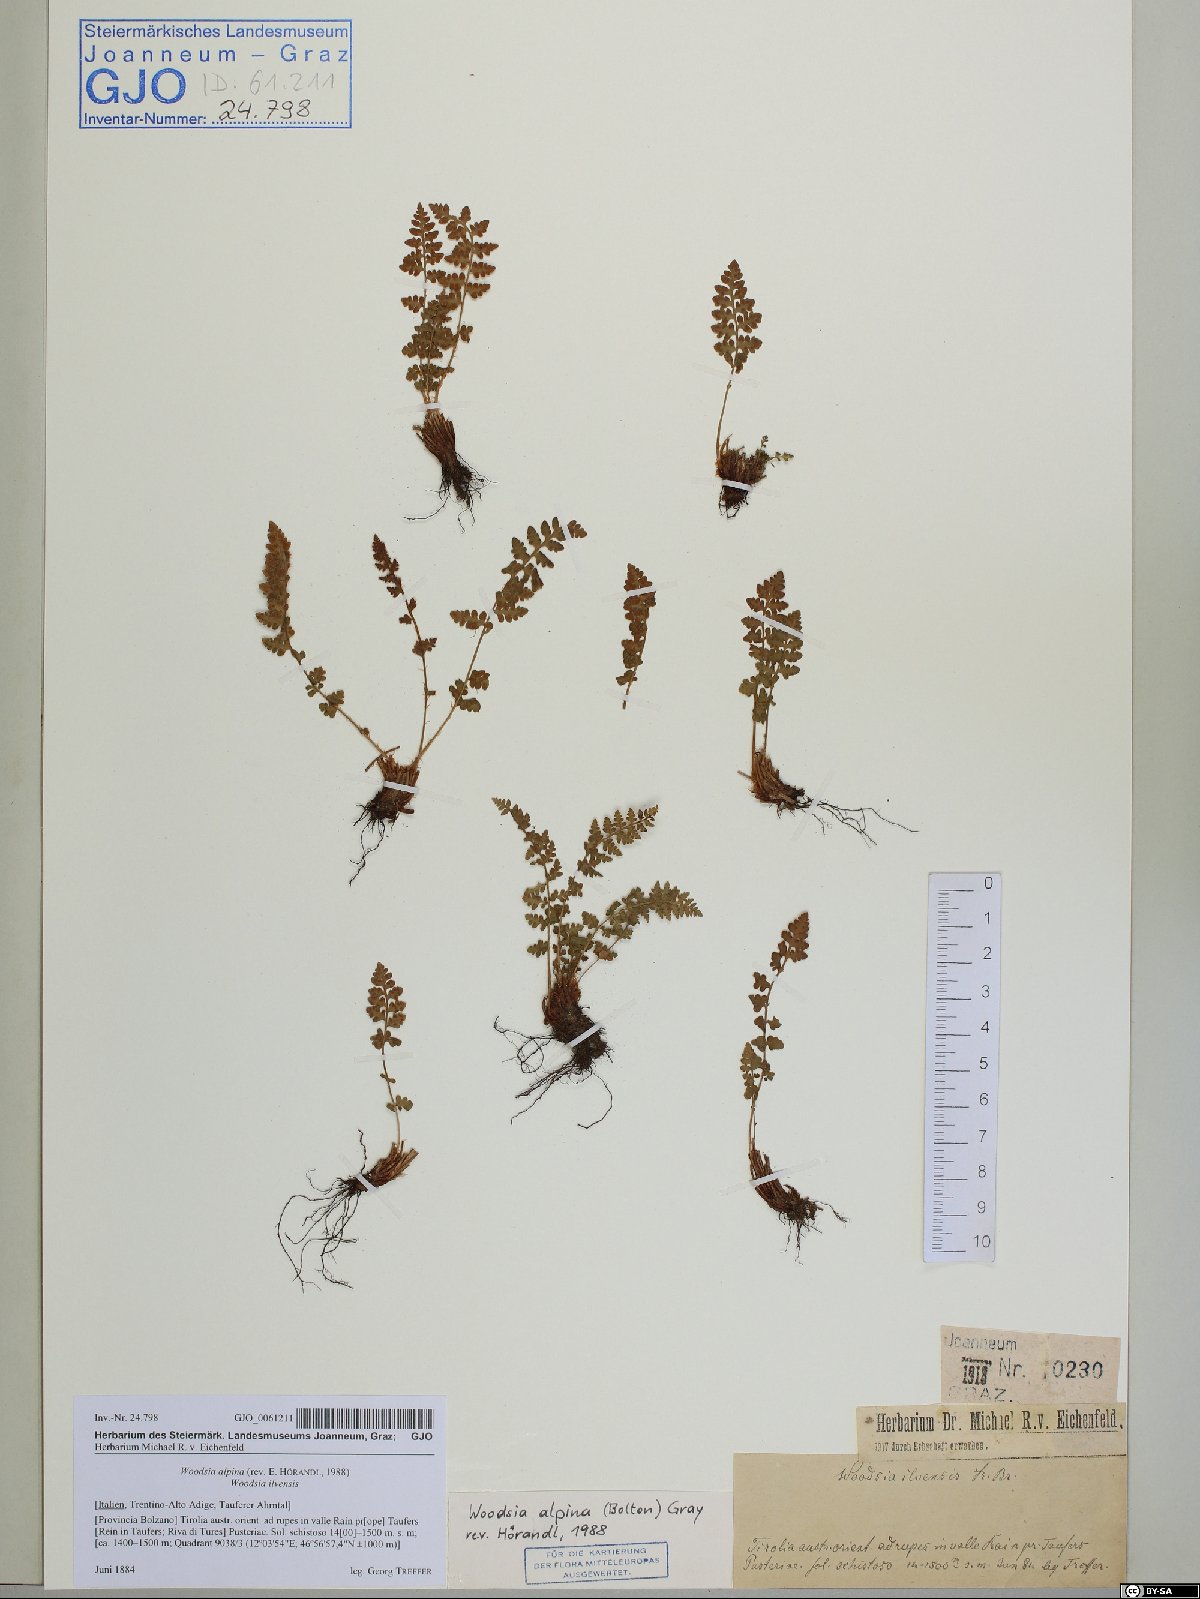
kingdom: Plantae
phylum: Tracheophyta
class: Polypodiopsida
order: Polypodiales
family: Woodsiaceae
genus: Woodsia
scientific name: Woodsia alpina
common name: Alpine woodsia
